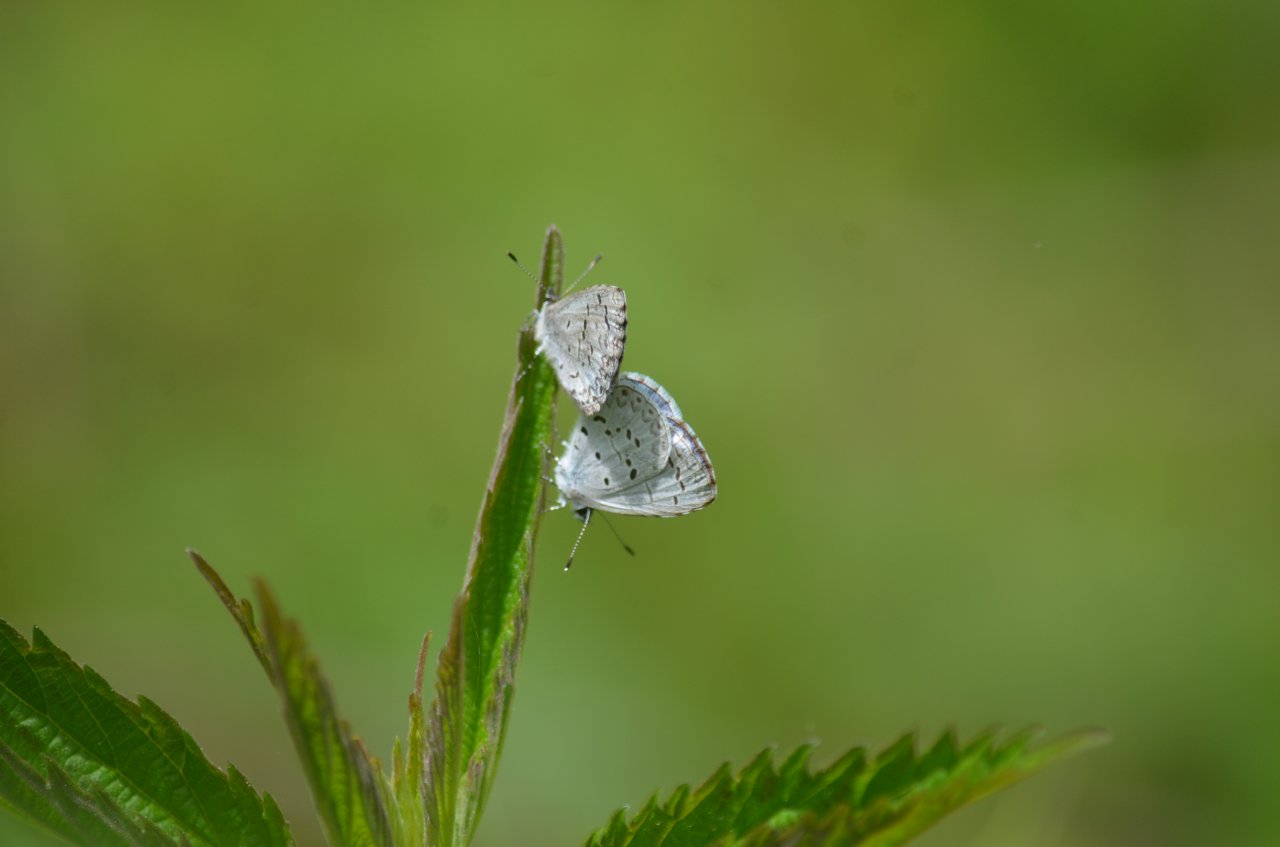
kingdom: Animalia
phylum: Arthropoda
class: Insecta
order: Lepidoptera
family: Lycaenidae
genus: Celastrina
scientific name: Celastrina
